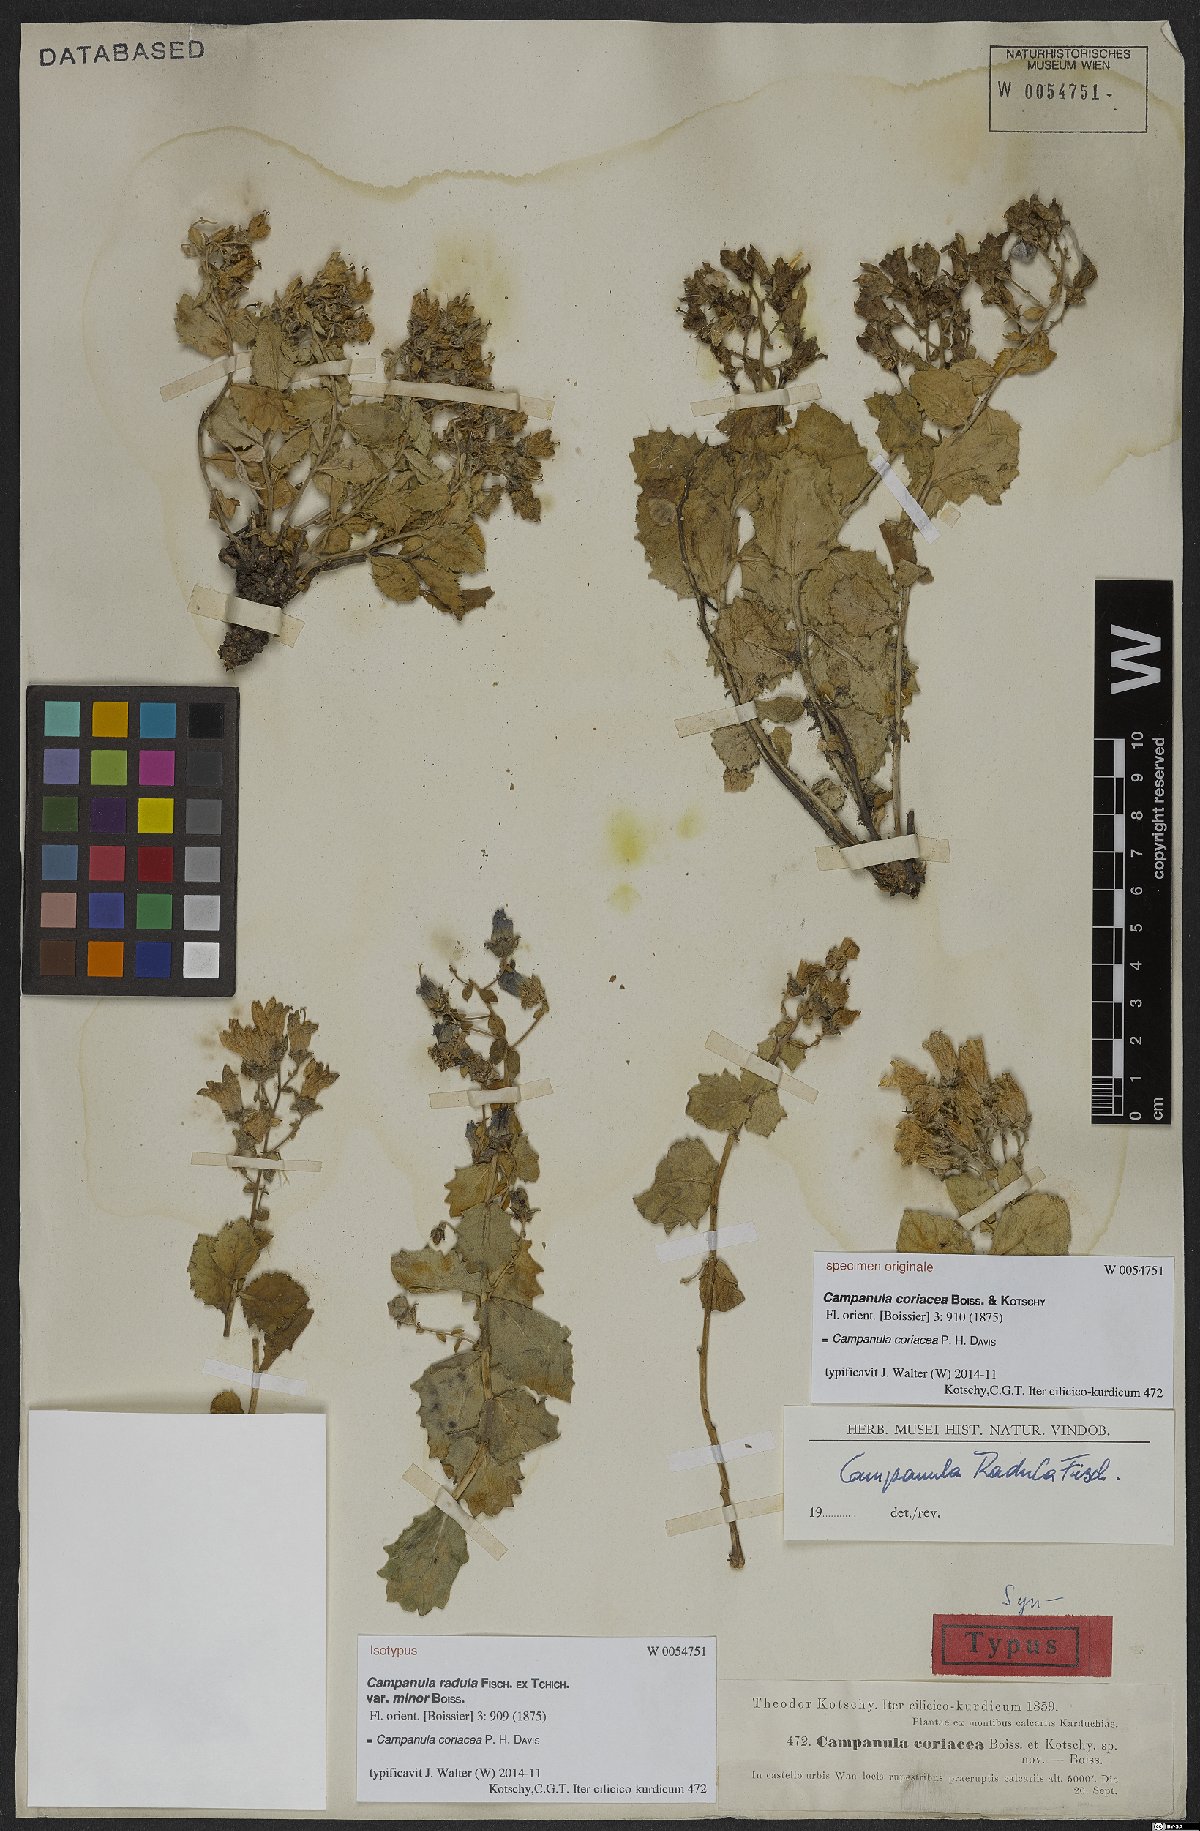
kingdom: Plantae
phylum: Tracheophyta
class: Magnoliopsida
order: Asterales
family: Campanulaceae
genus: Campanula
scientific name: Campanula coriacea
